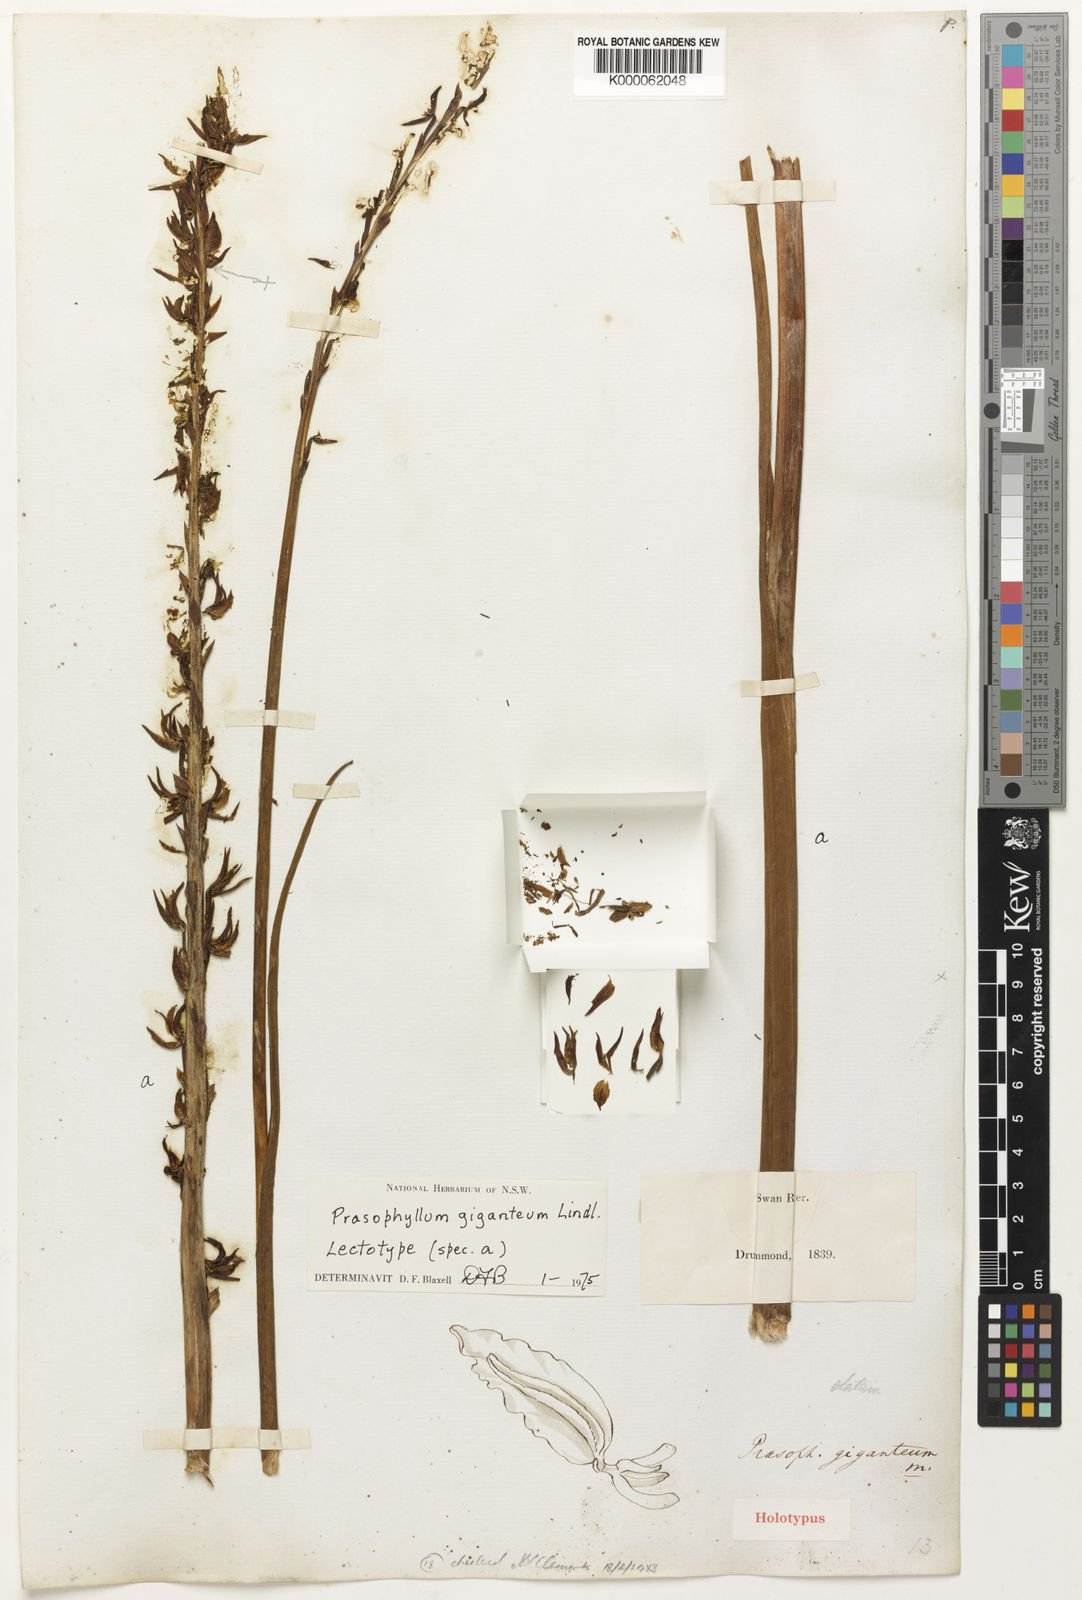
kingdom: Plantae
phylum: Tracheophyta
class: Liliopsida
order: Asparagales
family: Orchidaceae
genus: Prasophyllum
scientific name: Prasophyllum giganteum
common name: Bronze leek orchid
